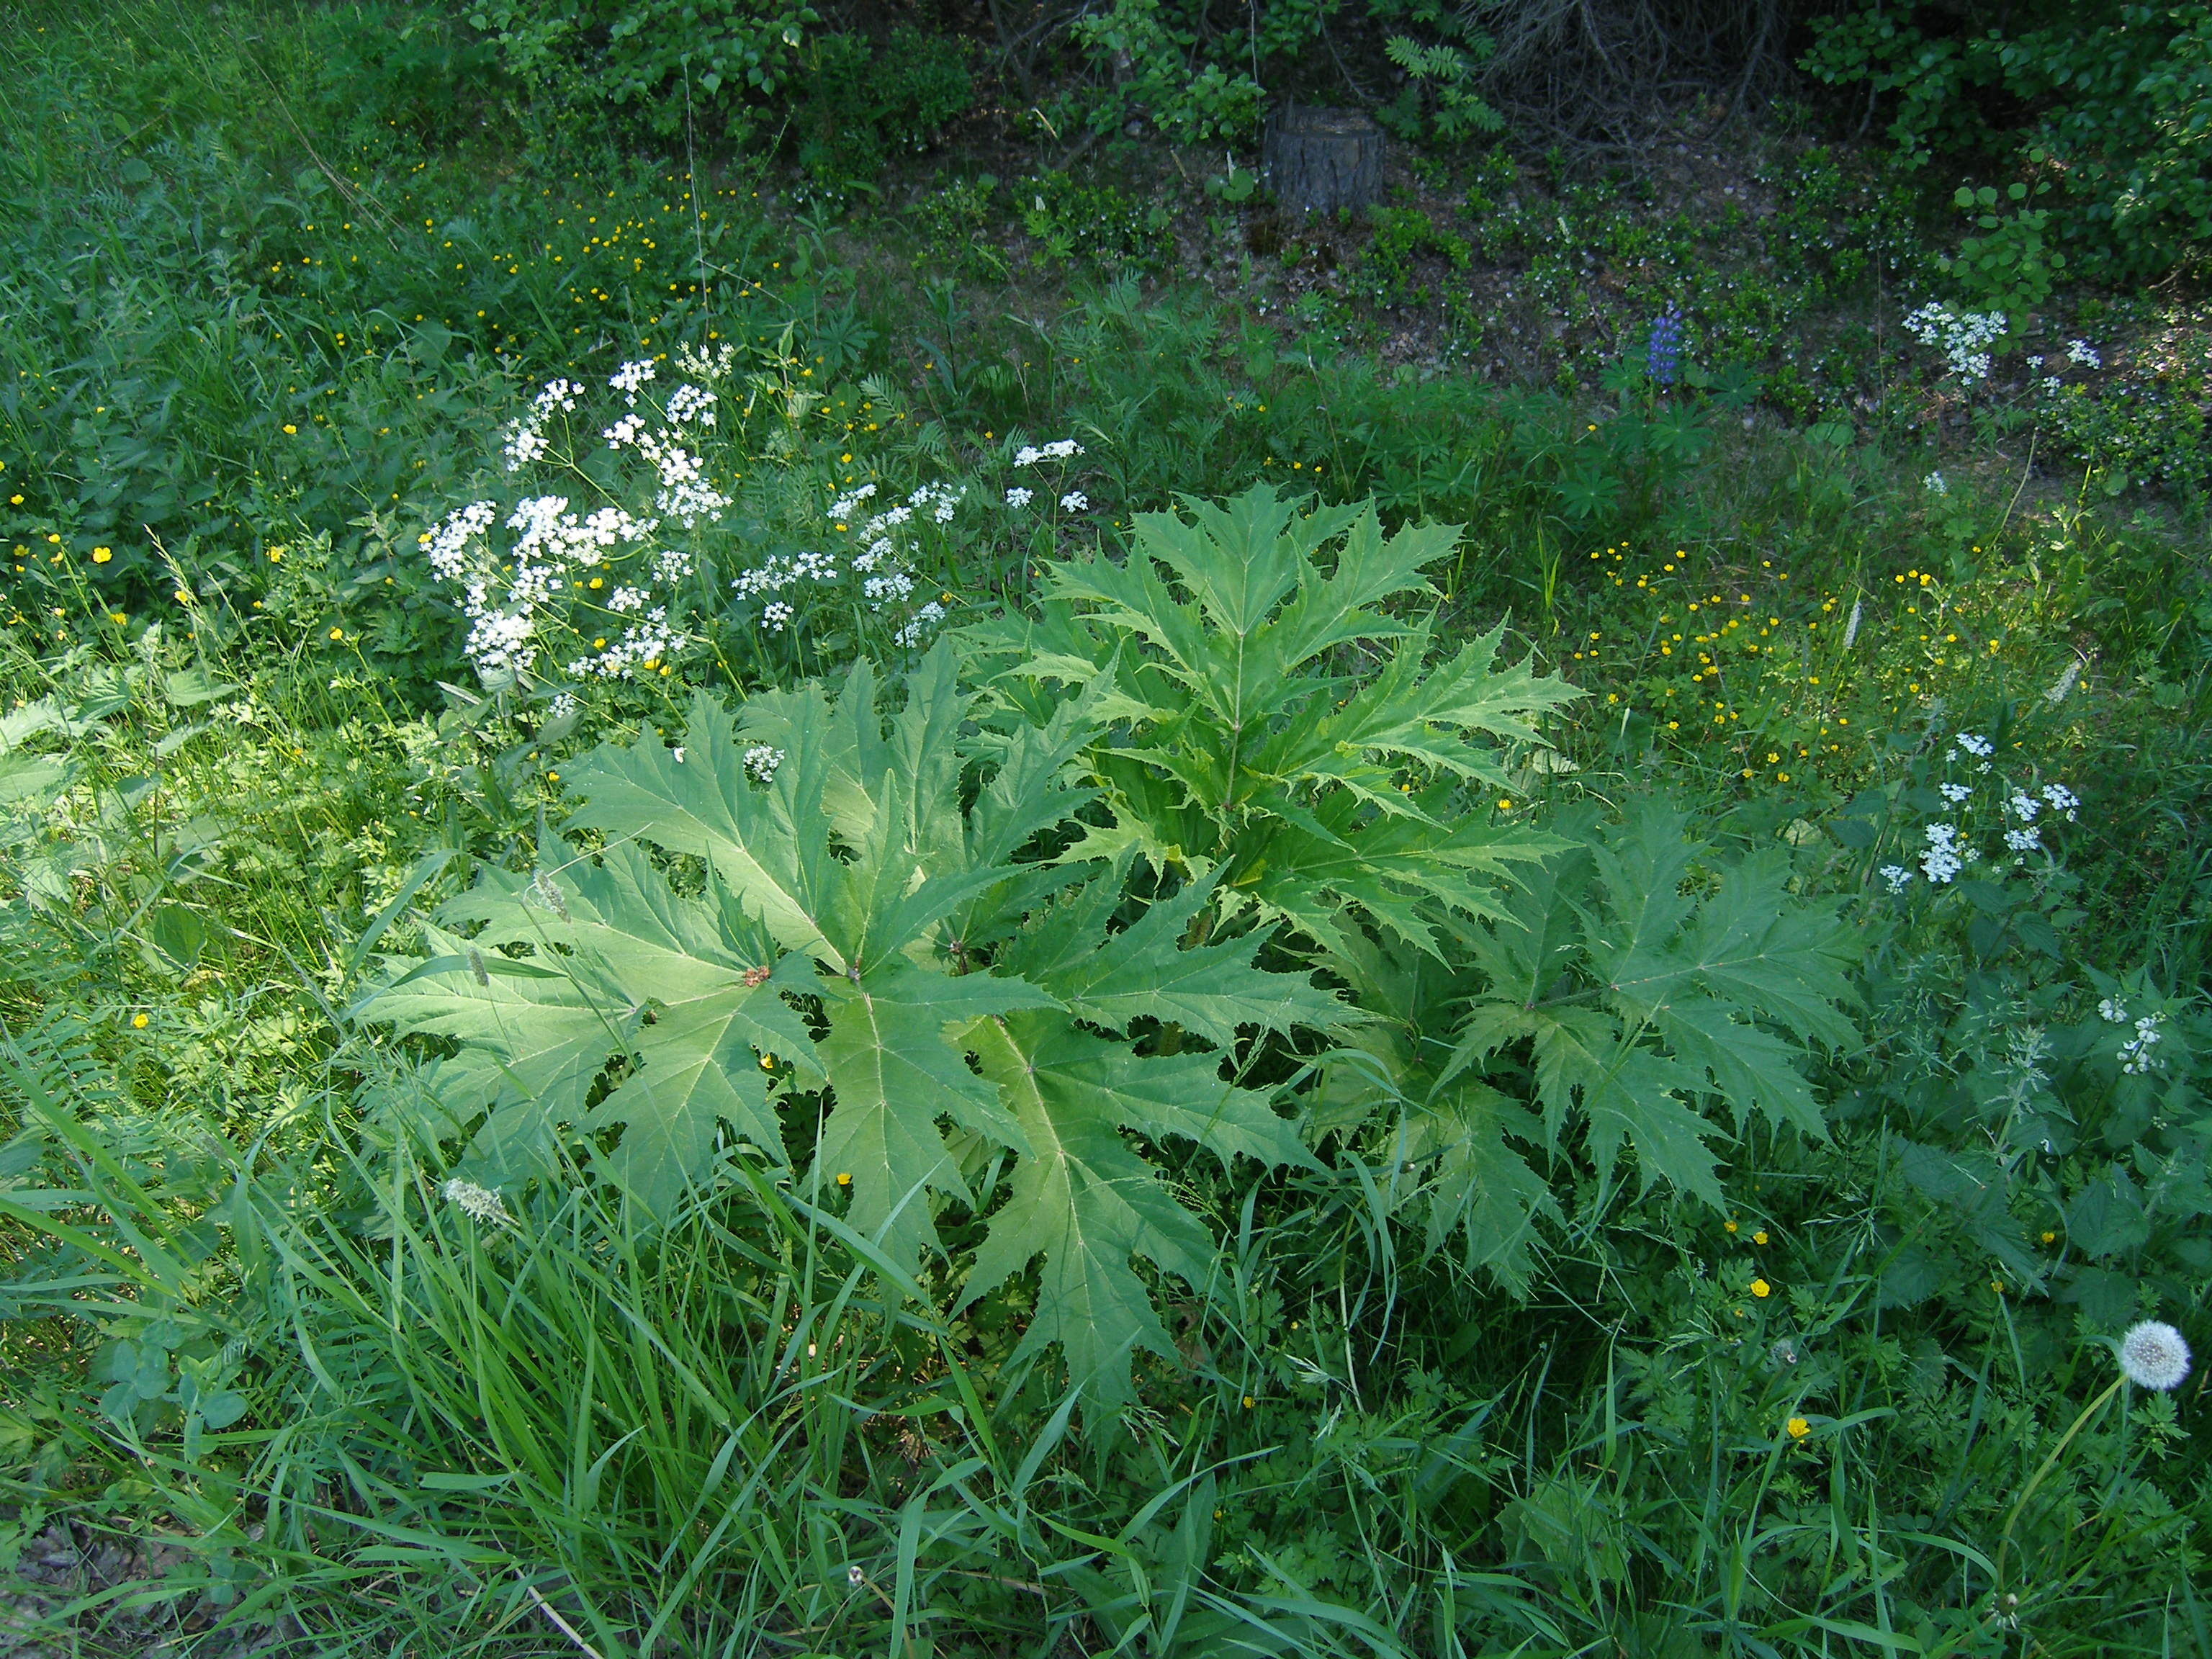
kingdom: Plantae
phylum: Tracheophyta
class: Magnoliopsida
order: Apiales
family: Apiaceae
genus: Heracleum
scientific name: Heracleum
